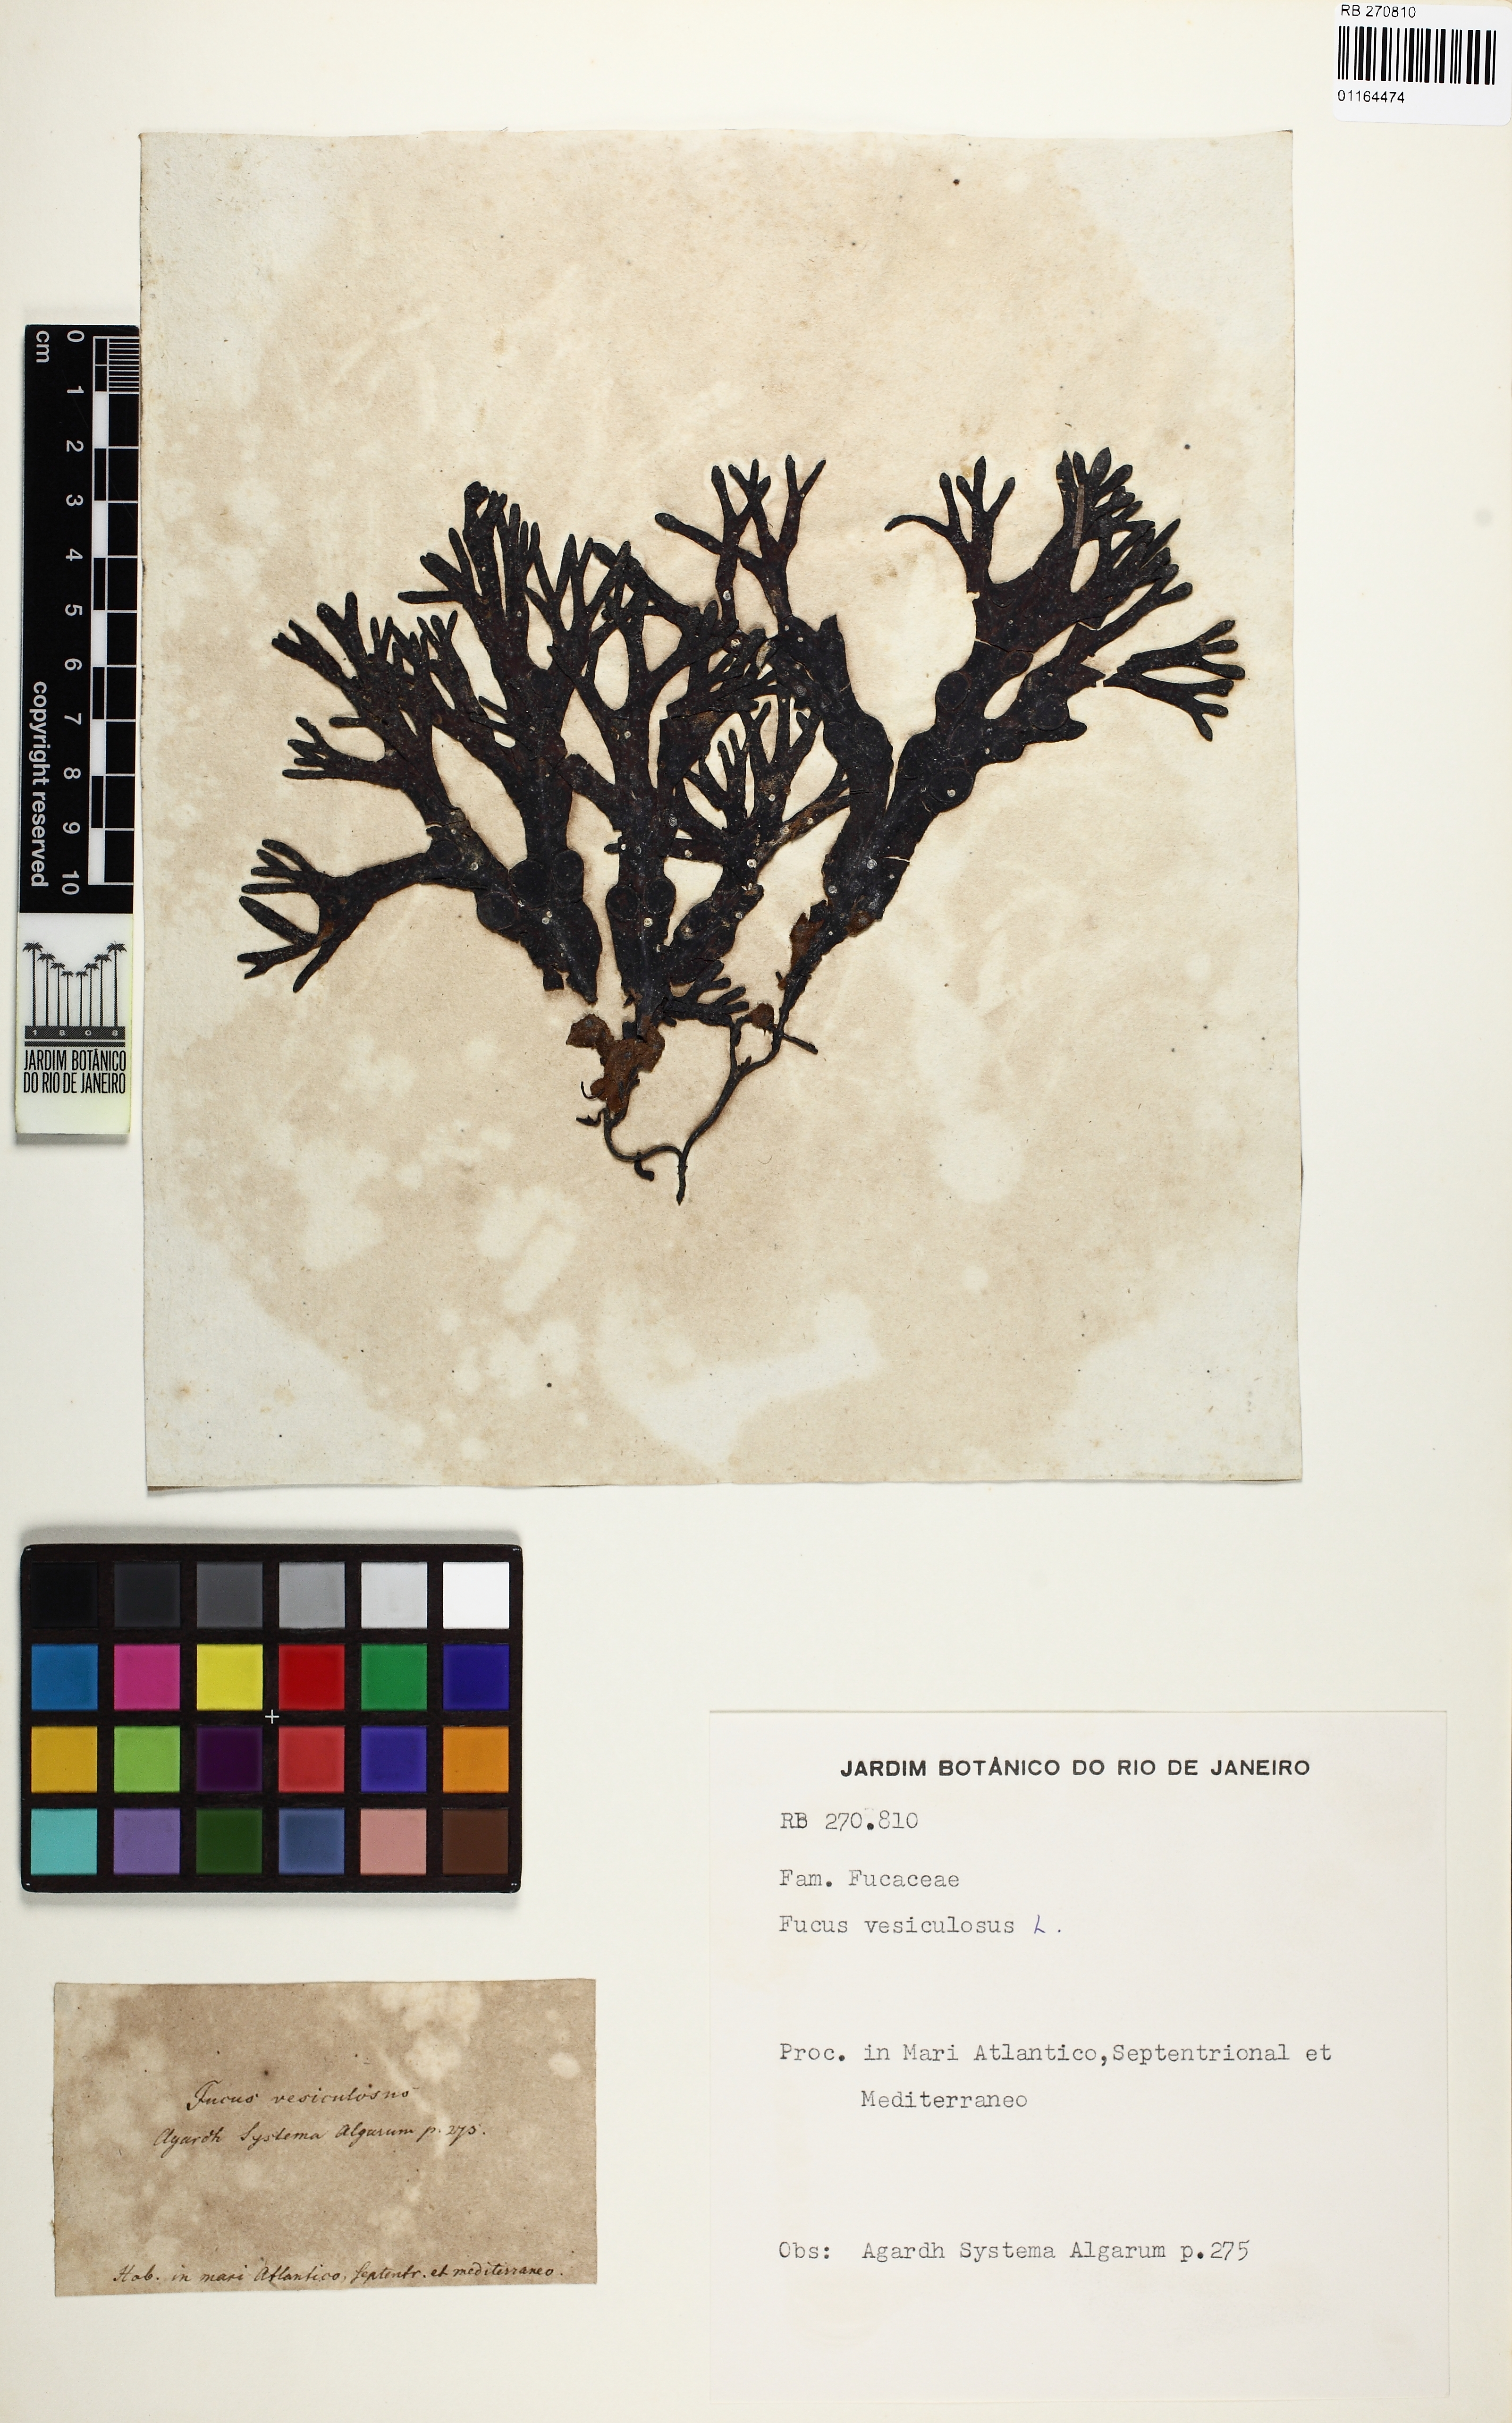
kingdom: Chromista
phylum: Ochrophyta
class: Phaeophyceae
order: Fucales
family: Fucaceae
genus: Fucus
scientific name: Fucus vesiculosus
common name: Bladder wrack
